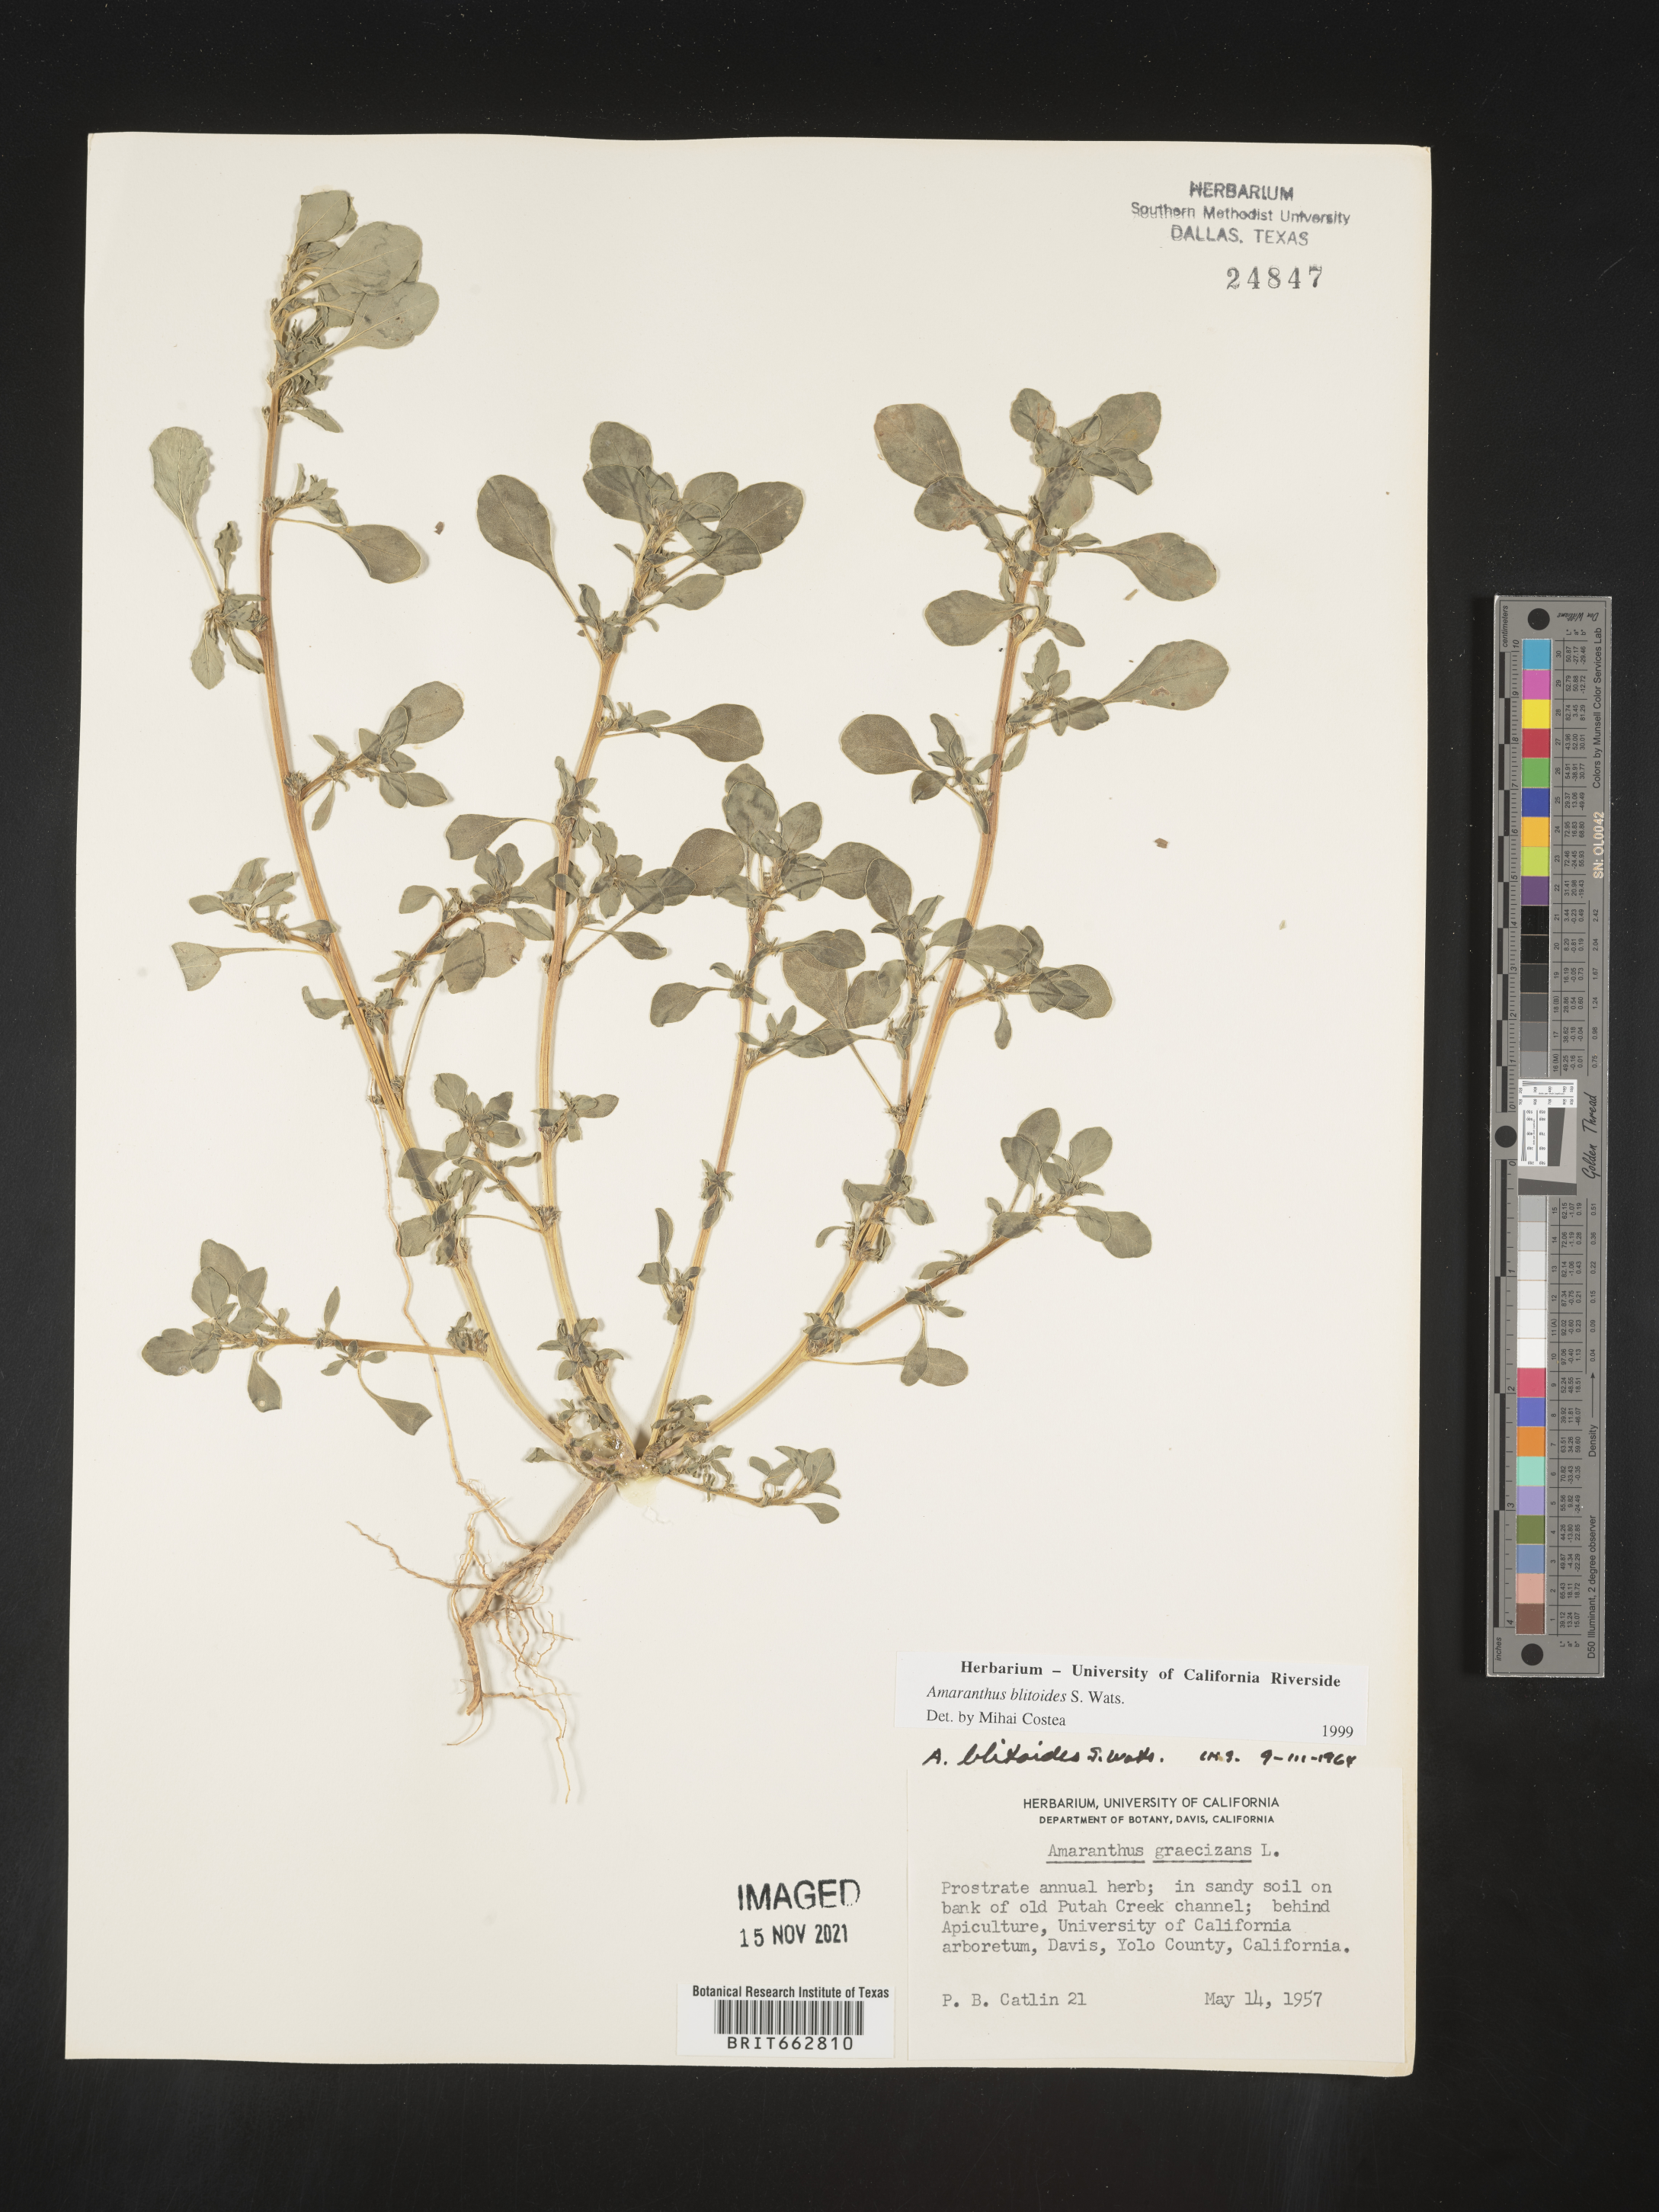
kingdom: Plantae
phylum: Tracheophyta
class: Magnoliopsida
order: Caryophyllales
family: Amaranthaceae
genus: Amaranthus
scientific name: Amaranthus blitoides
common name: Prostrate pigweed
